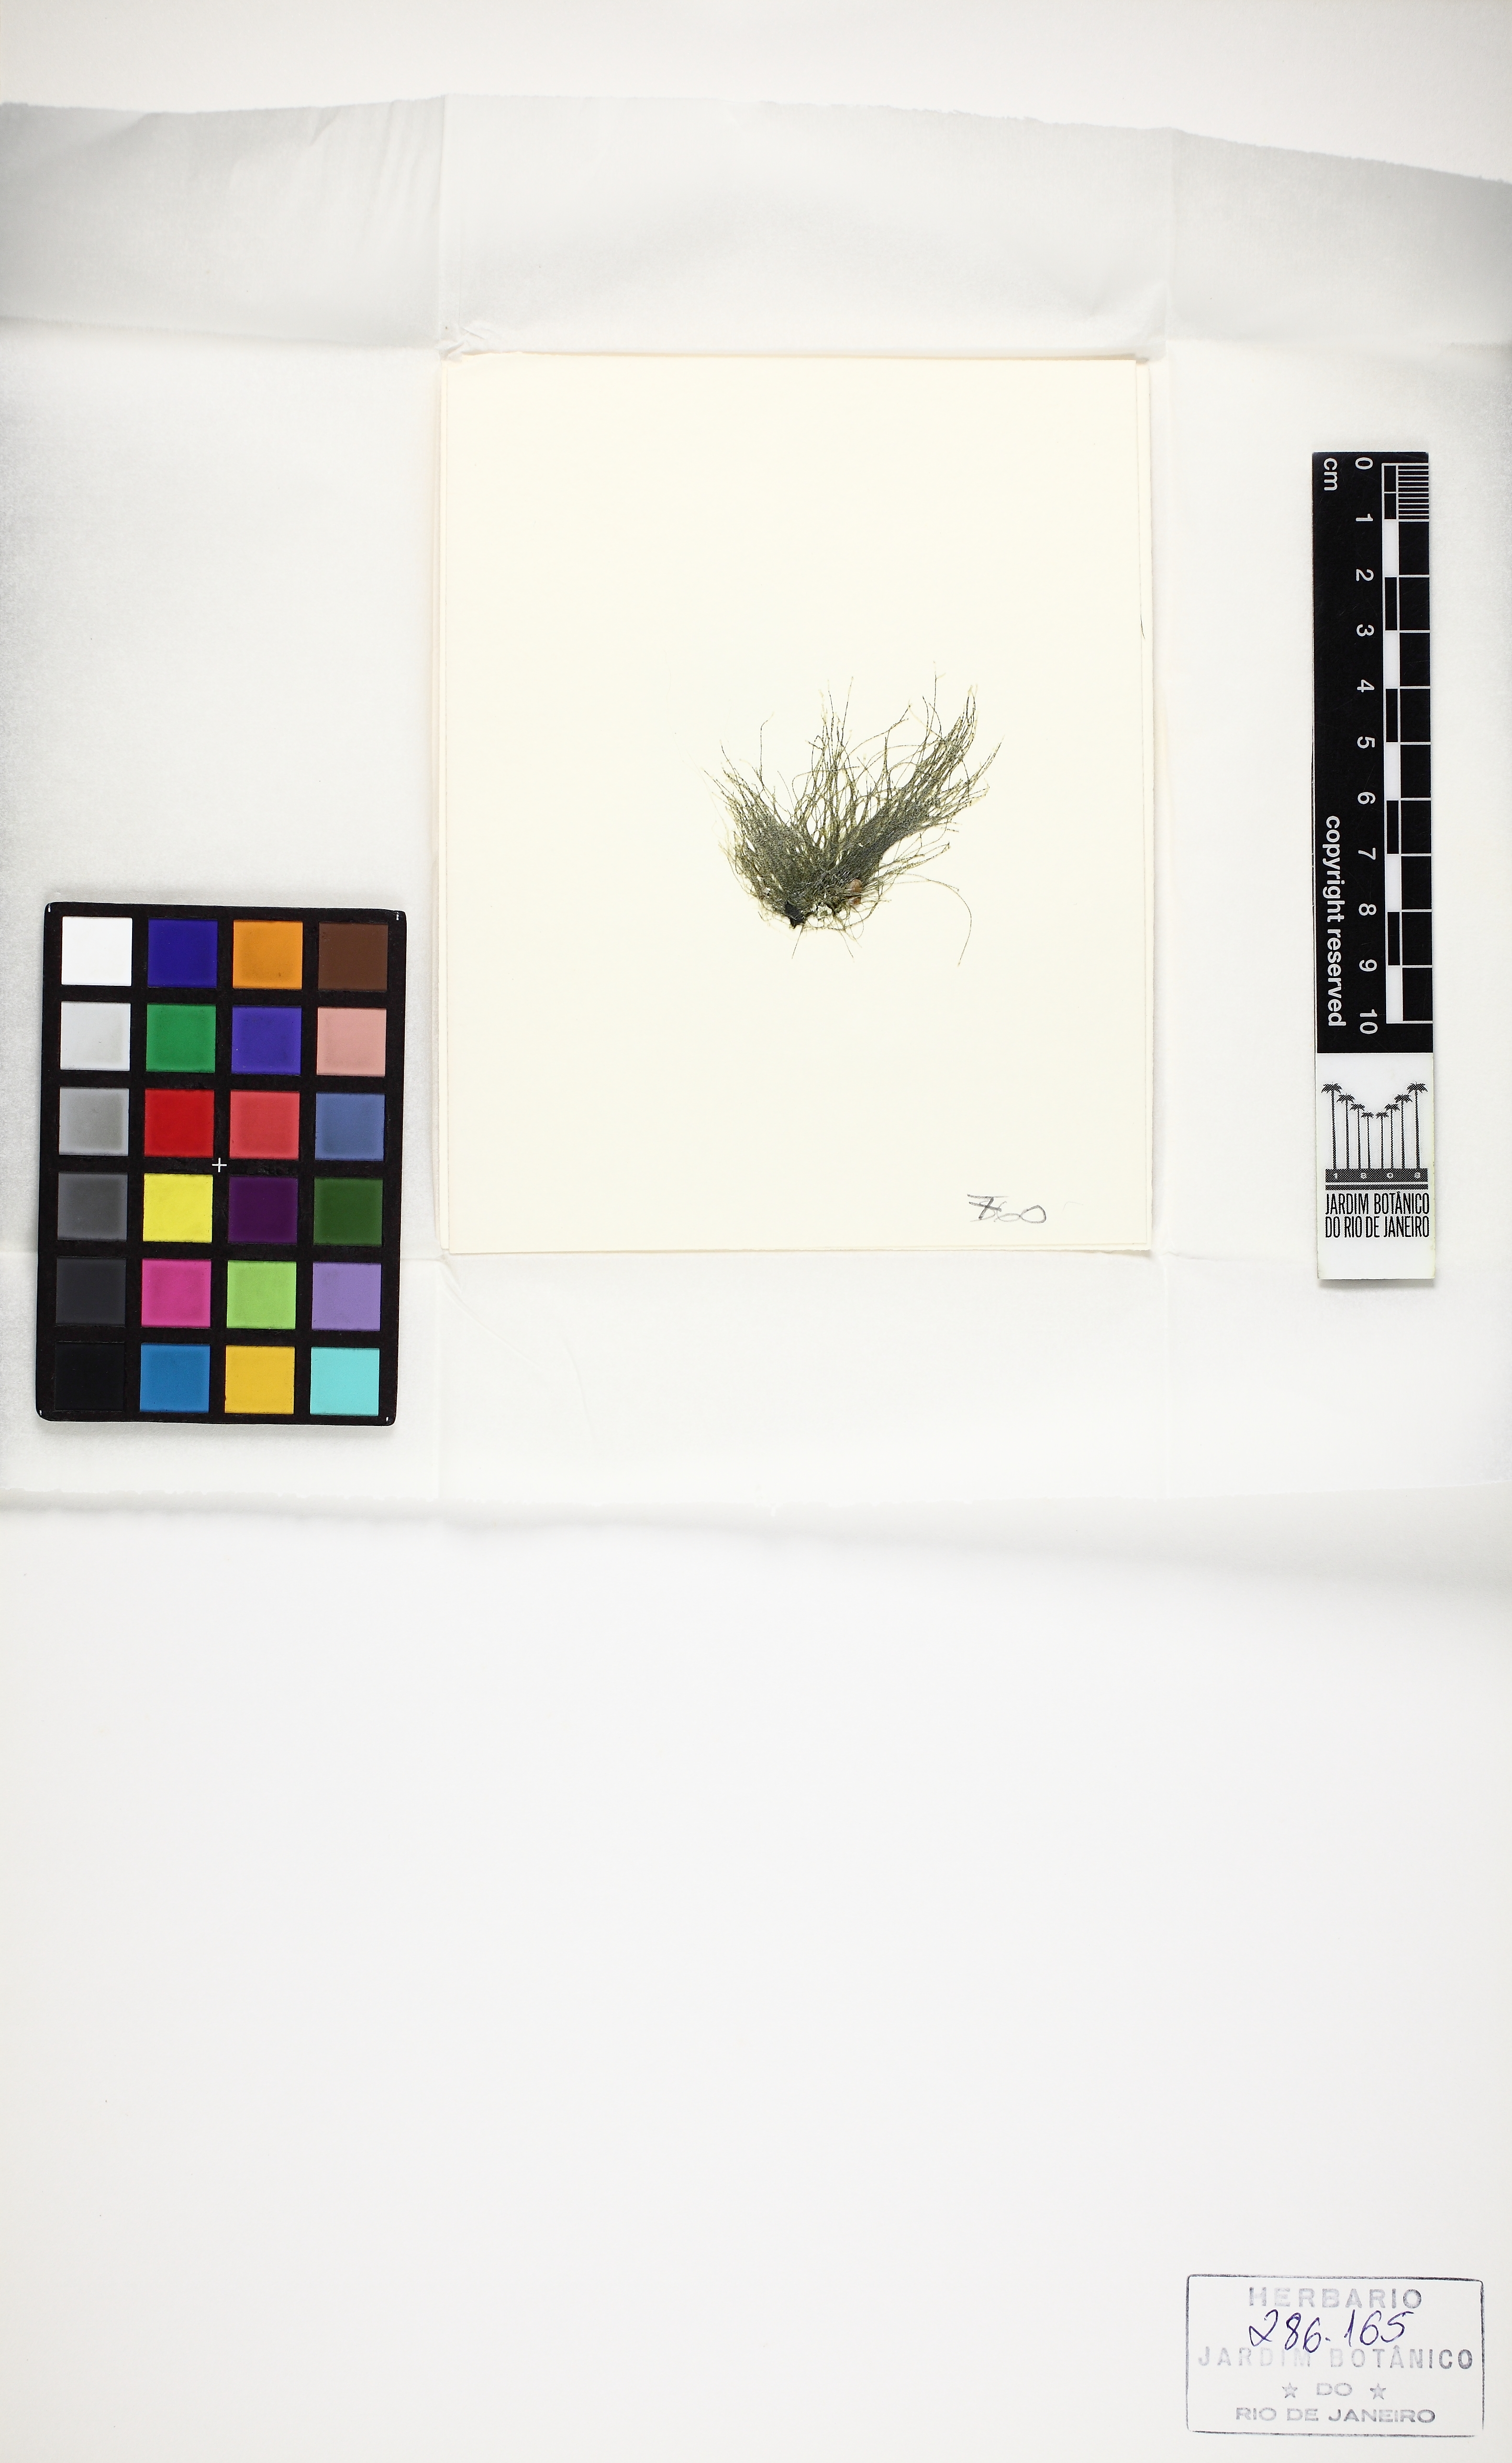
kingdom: Plantae
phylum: Chlorophyta
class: Ulvophyceae
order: Cladophorales
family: Cladophoraceae
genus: Chaetomorpha
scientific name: Chaetomorpha antennina
